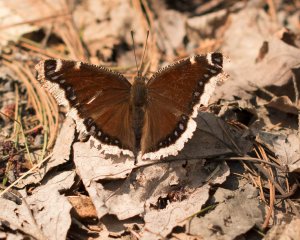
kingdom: Animalia
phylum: Arthropoda
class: Insecta
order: Lepidoptera
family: Nymphalidae
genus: Nymphalis
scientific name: Nymphalis antiopa
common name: Mourning Cloak
